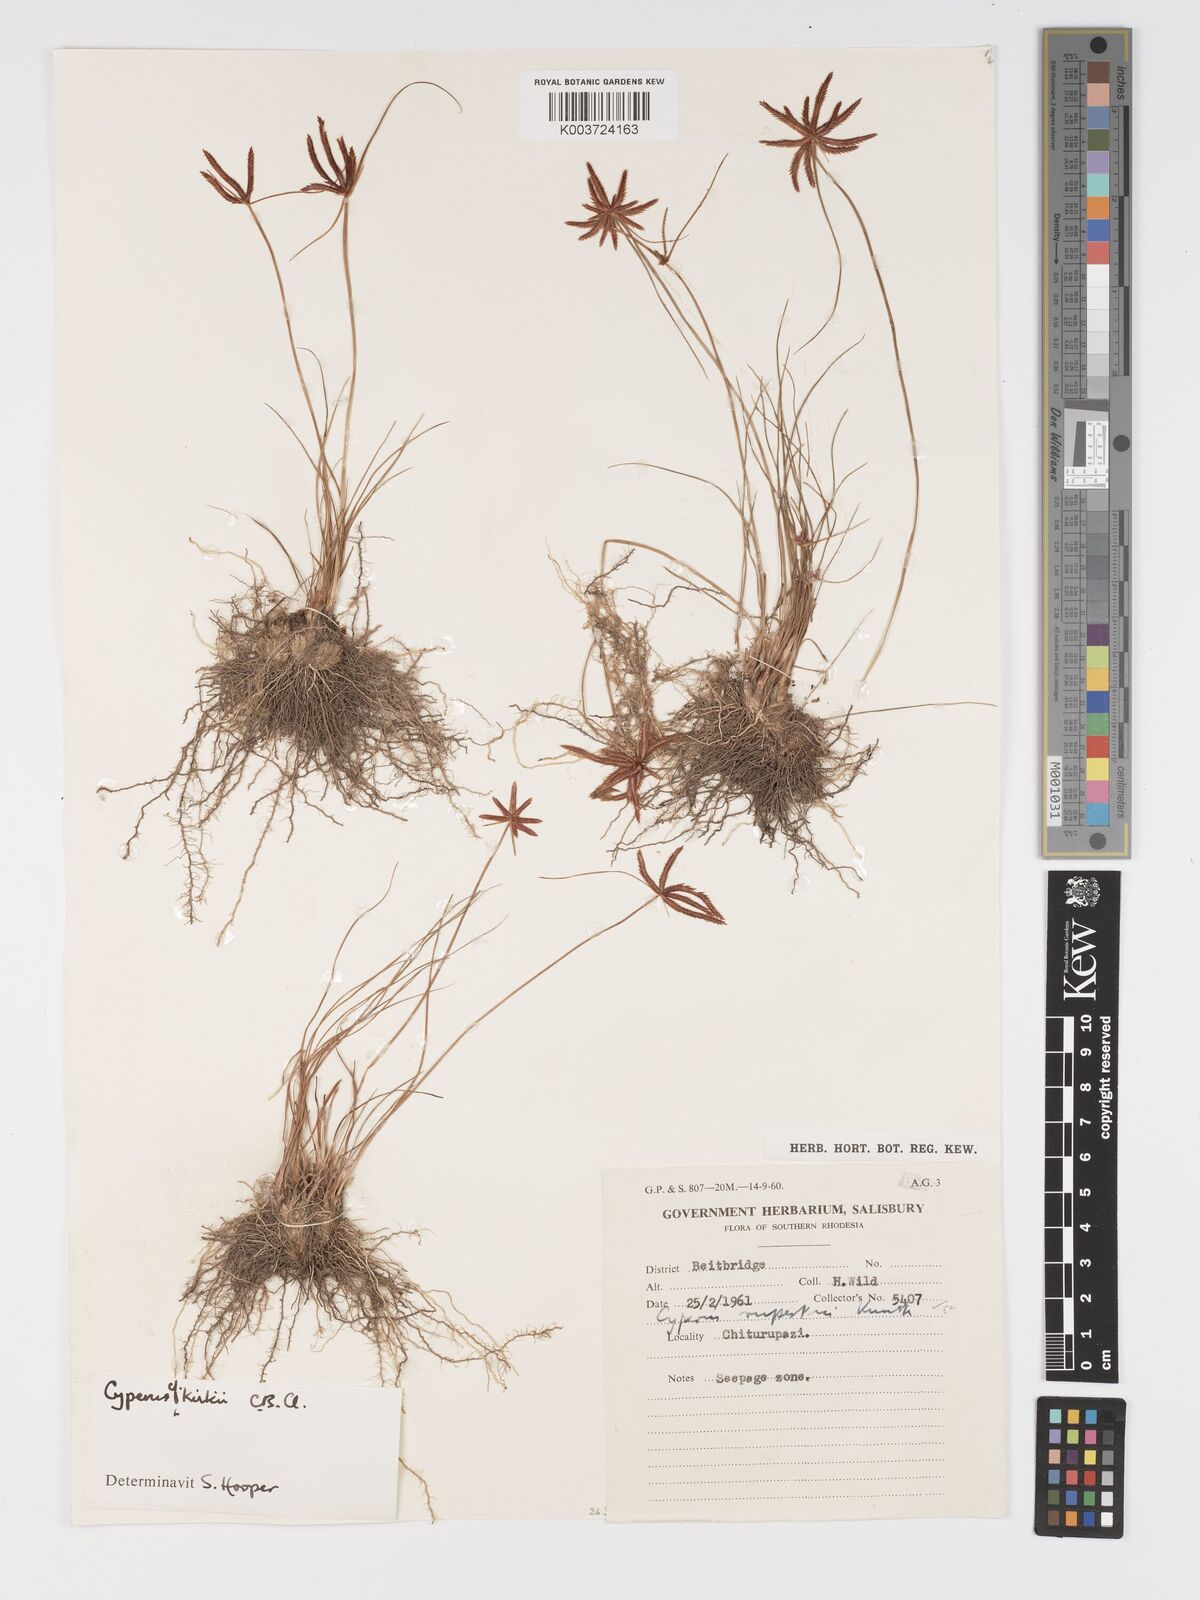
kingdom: Plantae
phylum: Tracheophyta
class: Liliopsida
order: Poales
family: Cyperaceae
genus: Cyperus
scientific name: Cyperus rupestris
